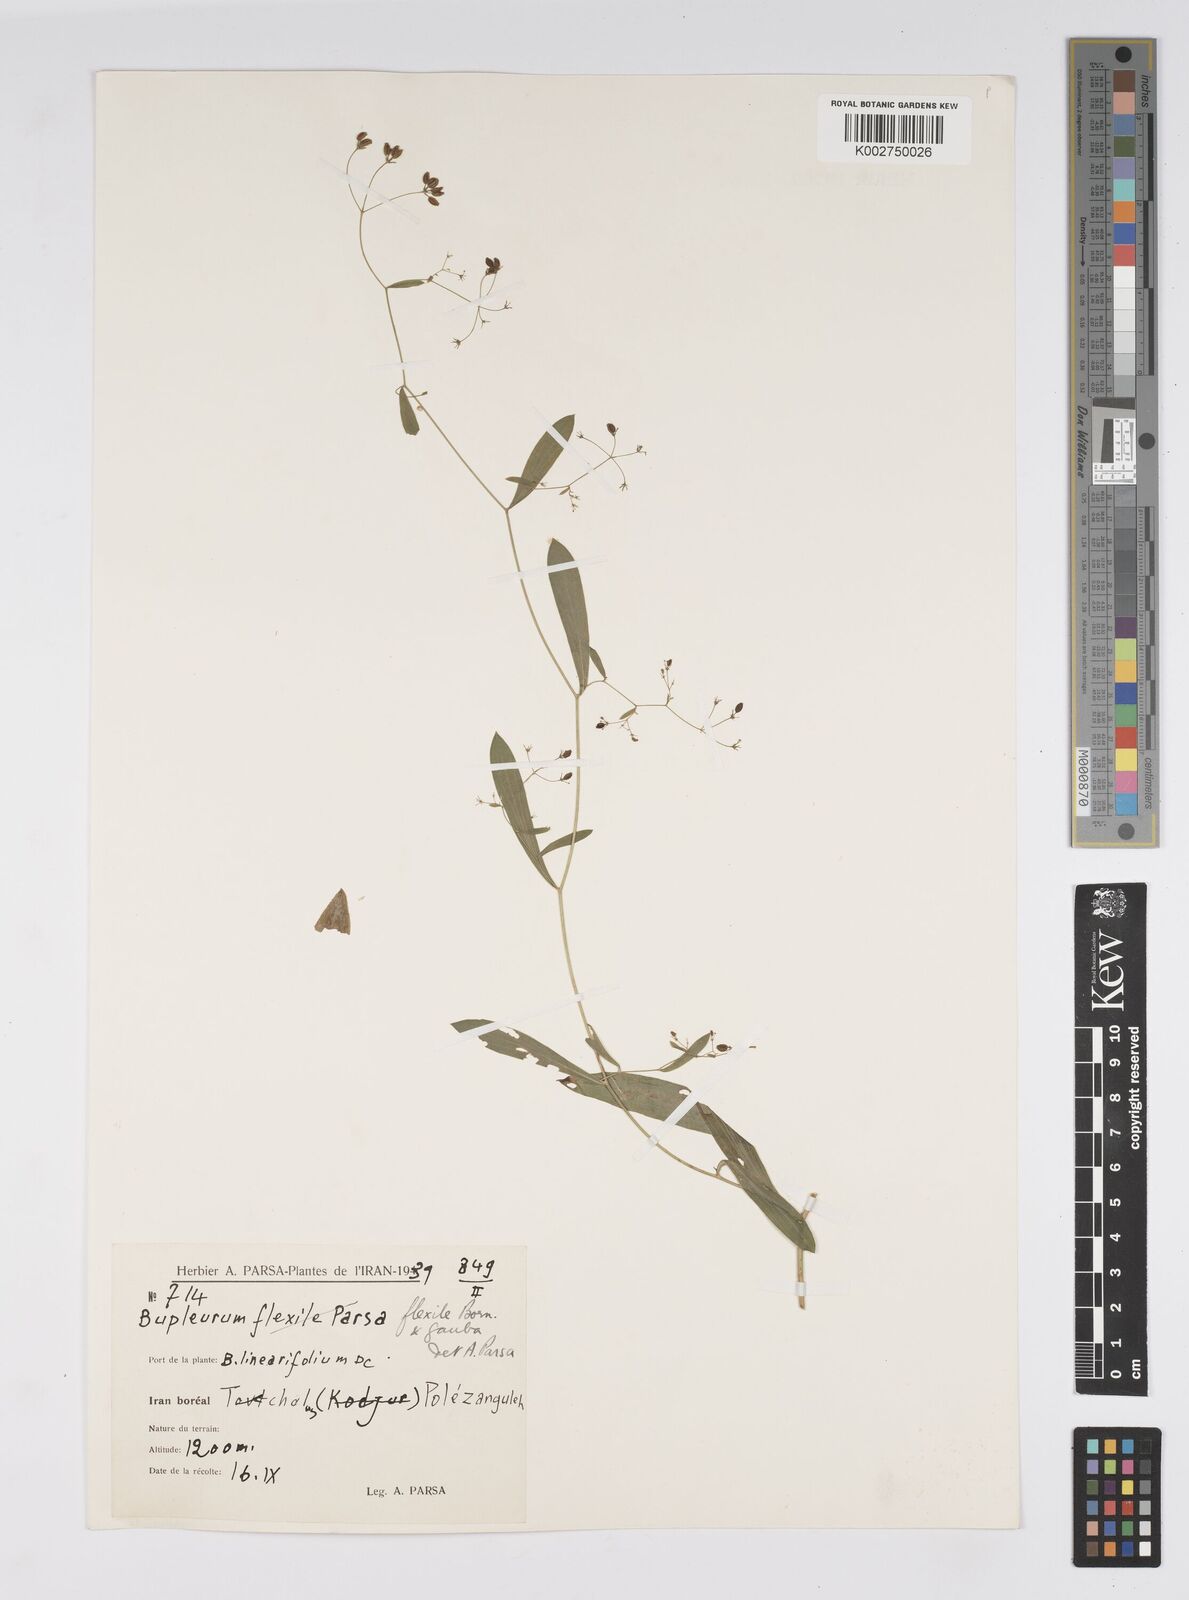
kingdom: Plantae
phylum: Tracheophyta
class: Magnoliopsida
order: Apiales
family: Apiaceae
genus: Bupleurum
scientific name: Bupleurum flexile
